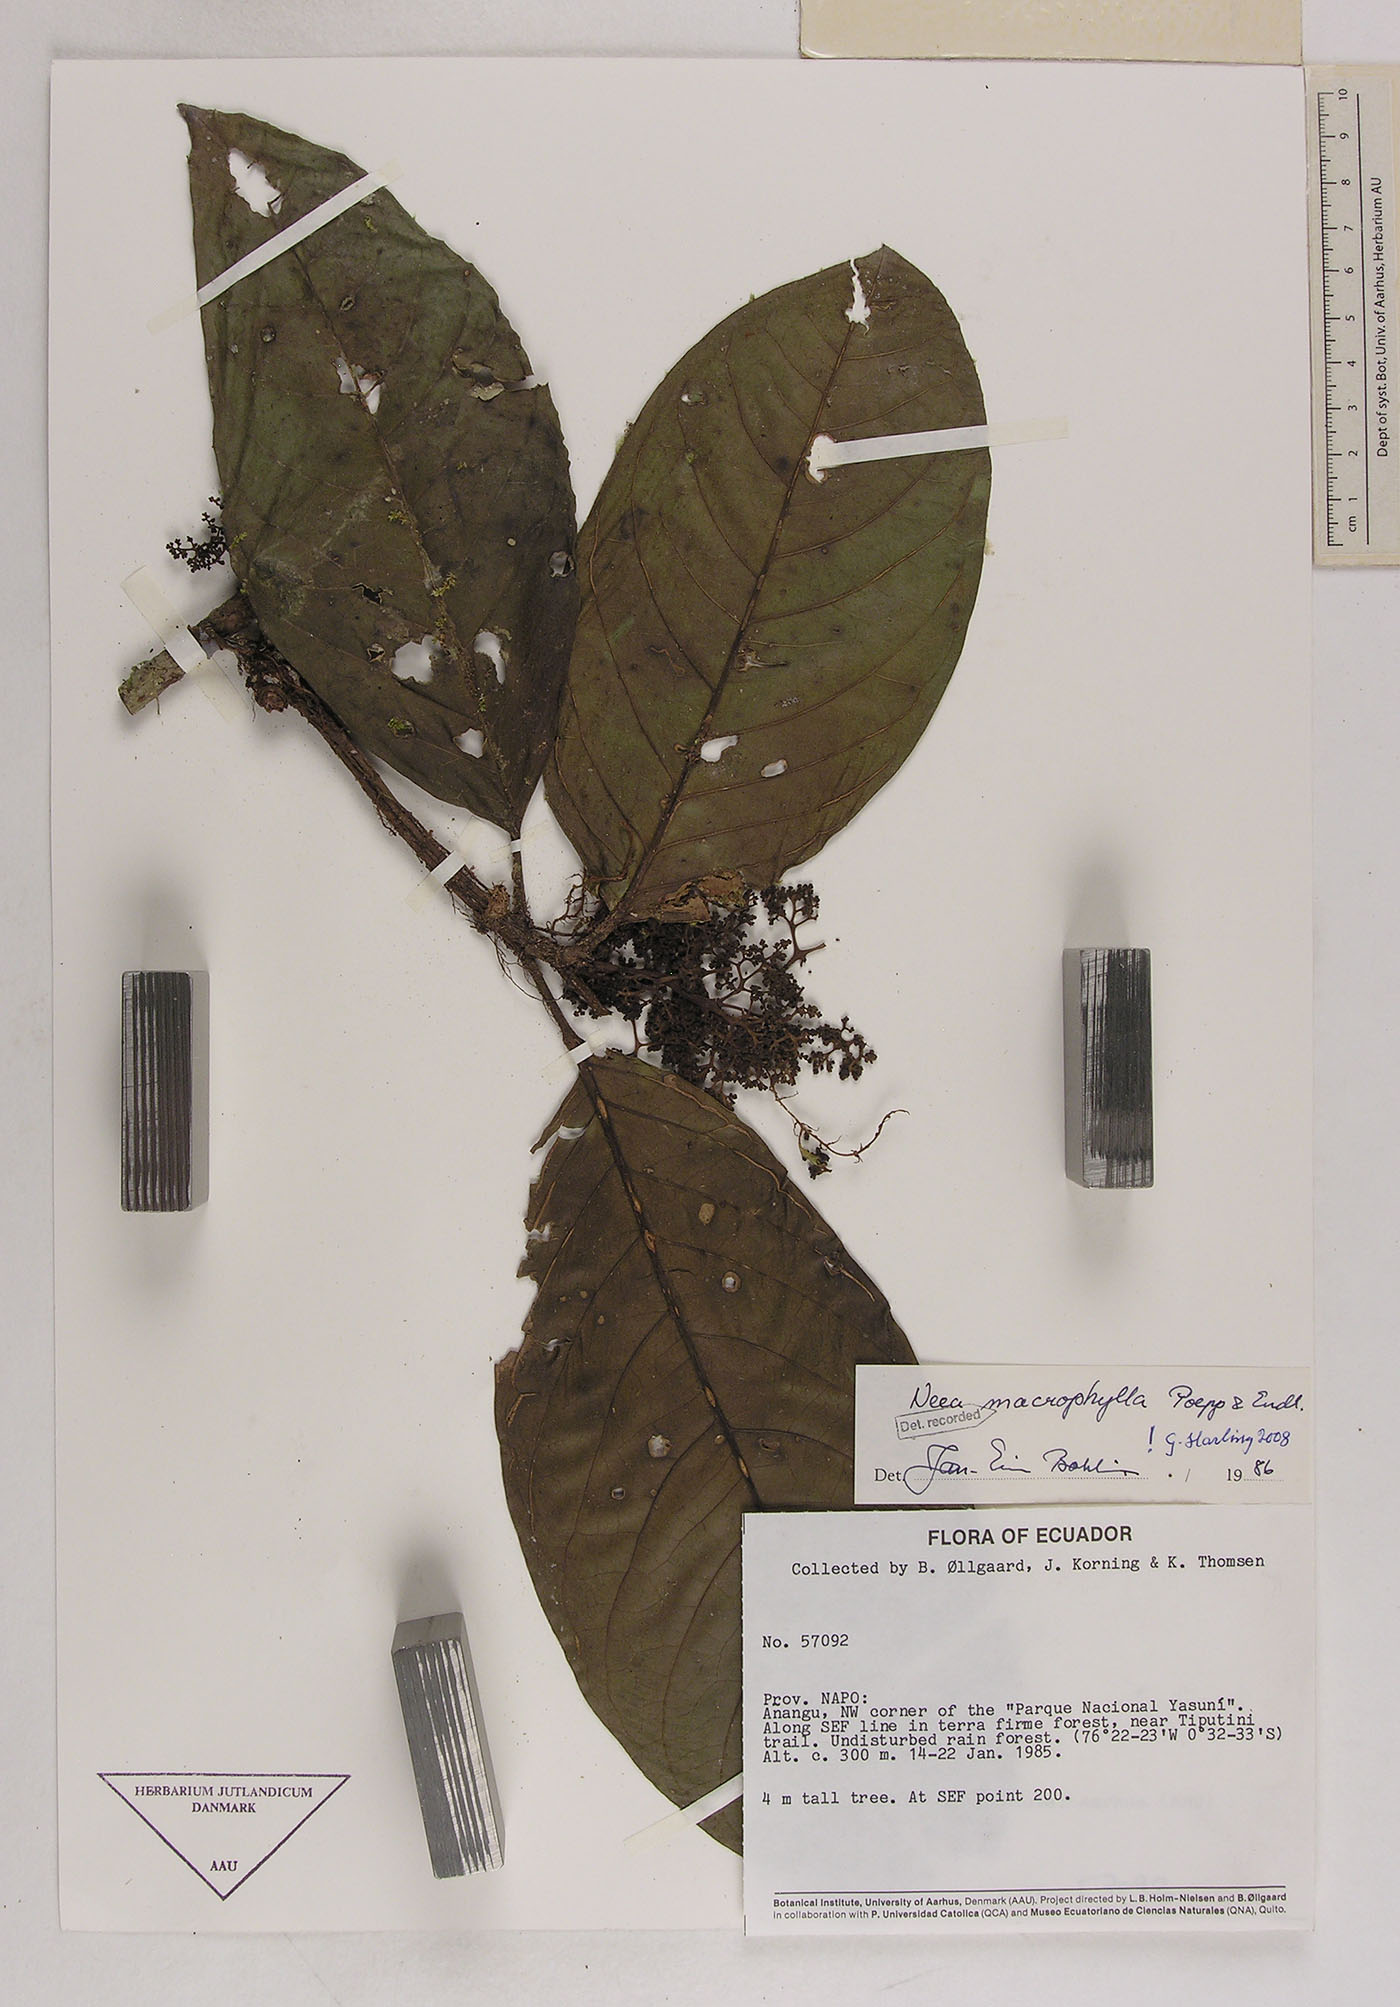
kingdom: Plantae
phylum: Tracheophyta
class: Magnoliopsida
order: Caryophyllales
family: Nyctaginaceae
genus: Neea
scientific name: Neea macrophylla
